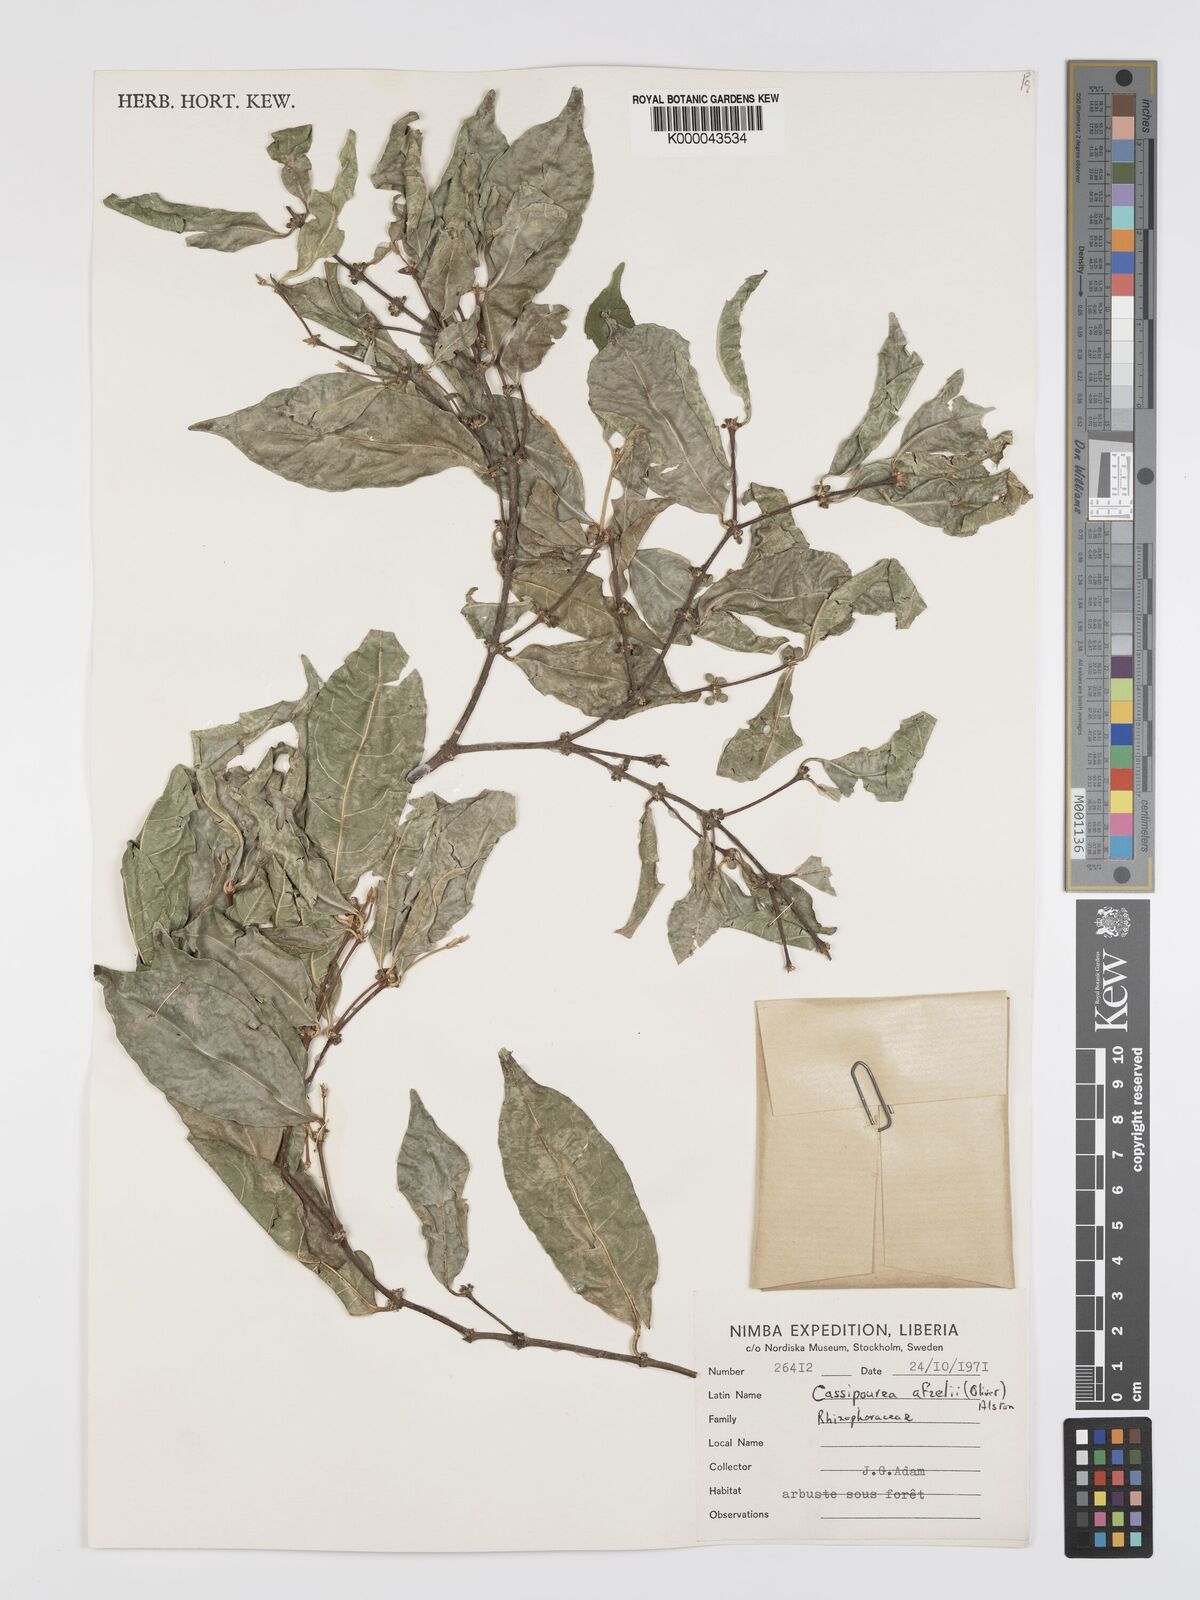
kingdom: Plantae
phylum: Tracheophyta
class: Magnoliopsida
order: Malpighiales
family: Rhizophoraceae
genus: Cassipourea
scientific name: Cassipourea afzelii
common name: Elephant tusk tree
